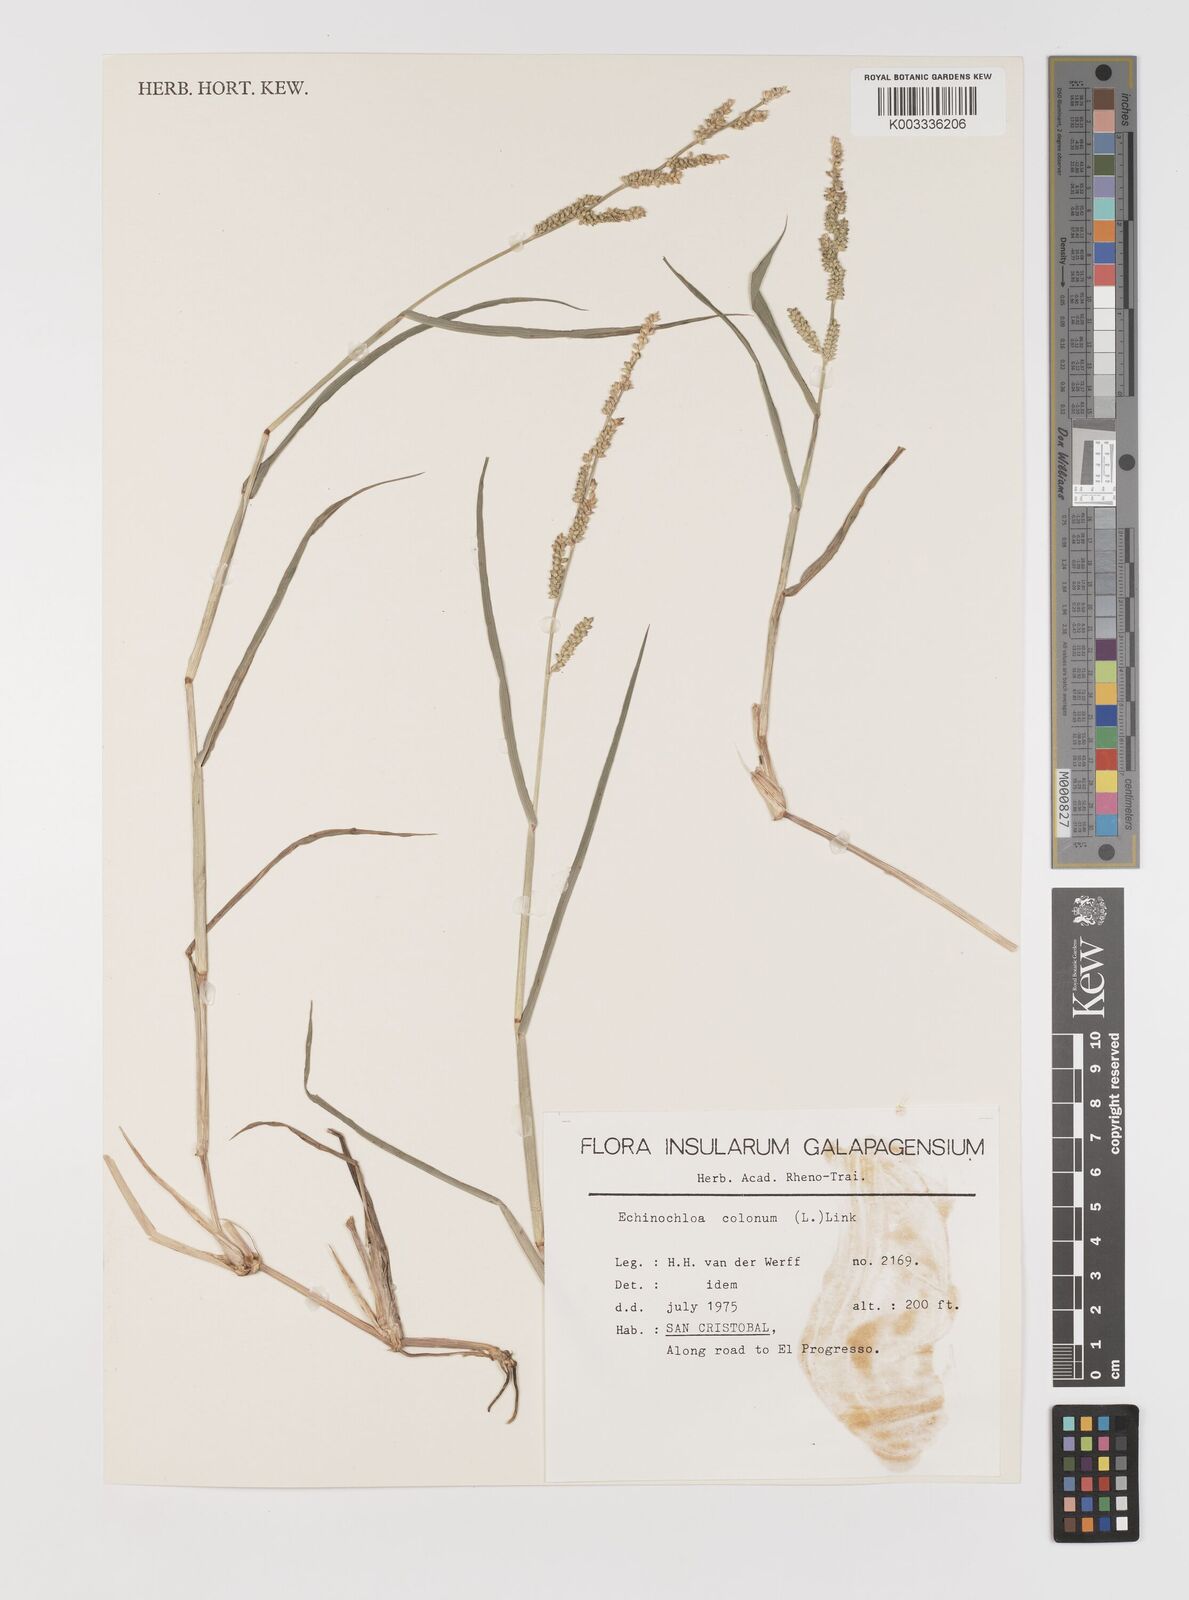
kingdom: Plantae
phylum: Tracheophyta
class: Liliopsida
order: Poales
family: Poaceae
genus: Echinochloa
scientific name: Echinochloa colonum
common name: Jungle rice
